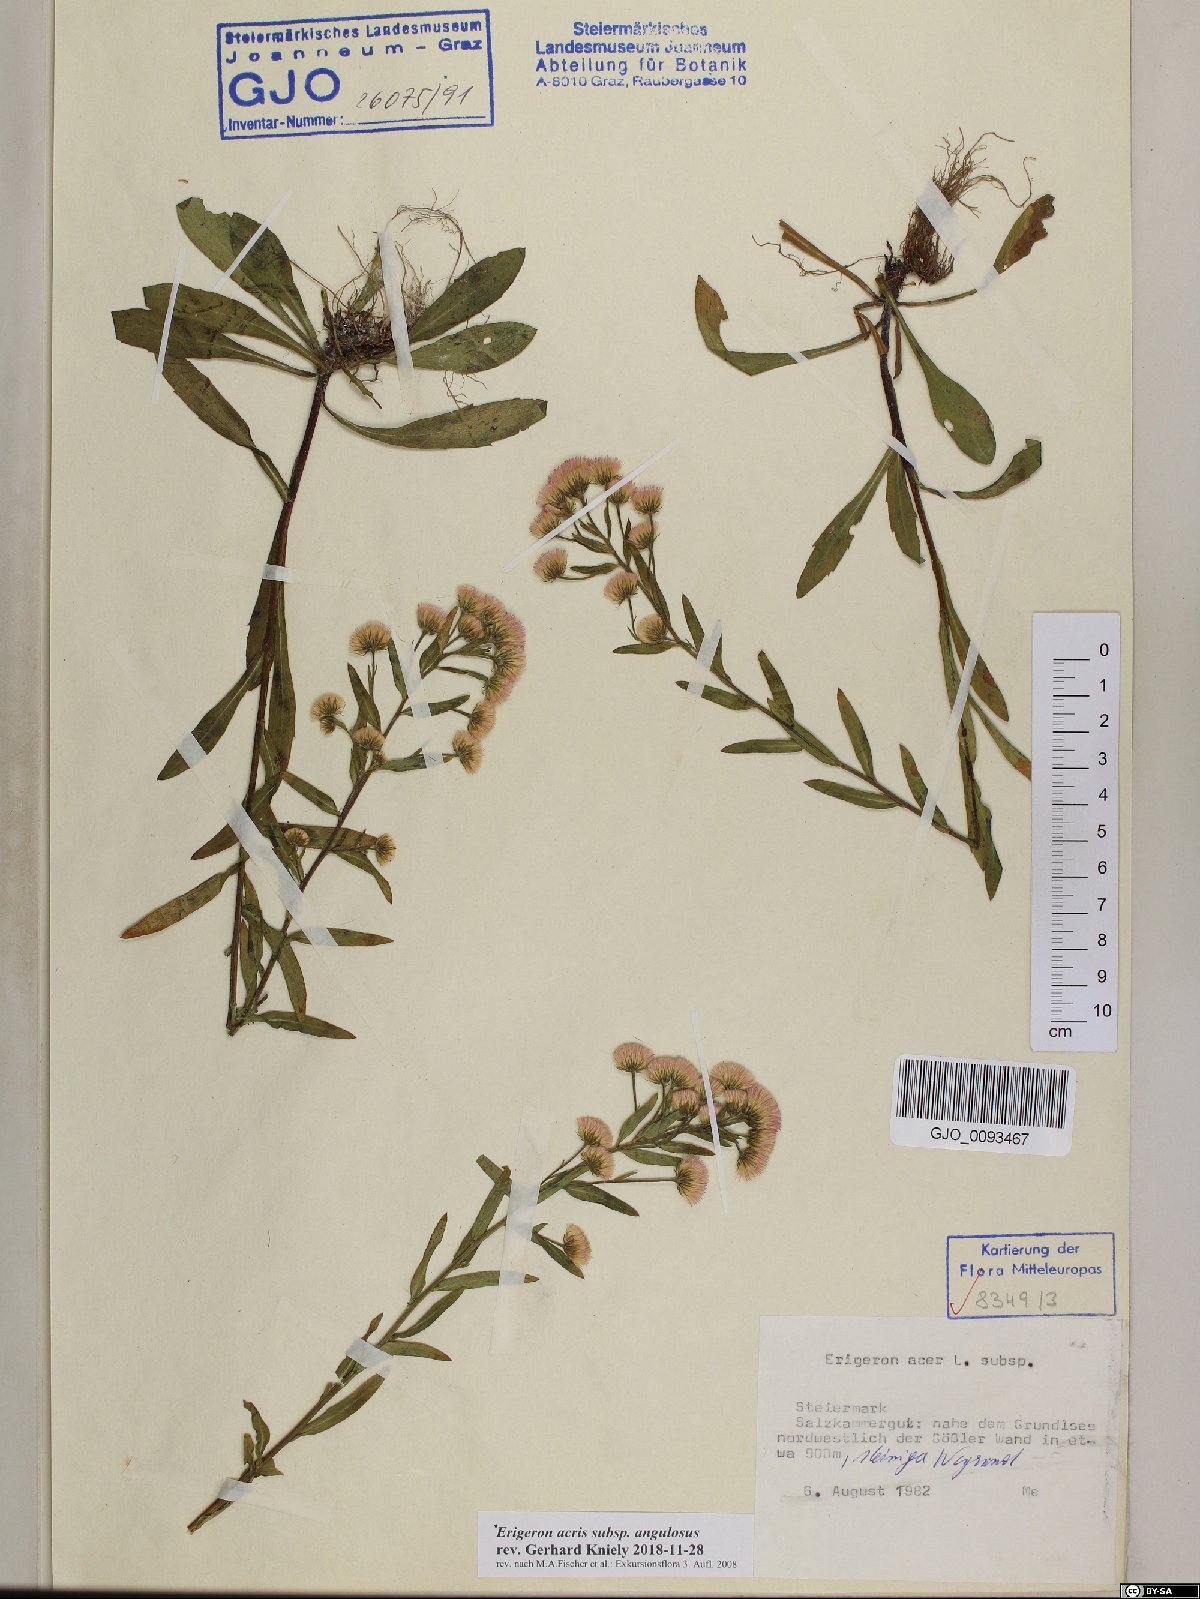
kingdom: Plantae
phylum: Tracheophyta
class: Magnoliopsida
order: Asterales
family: Asteraceae
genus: Erigeron
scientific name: Erigeron angulosus
